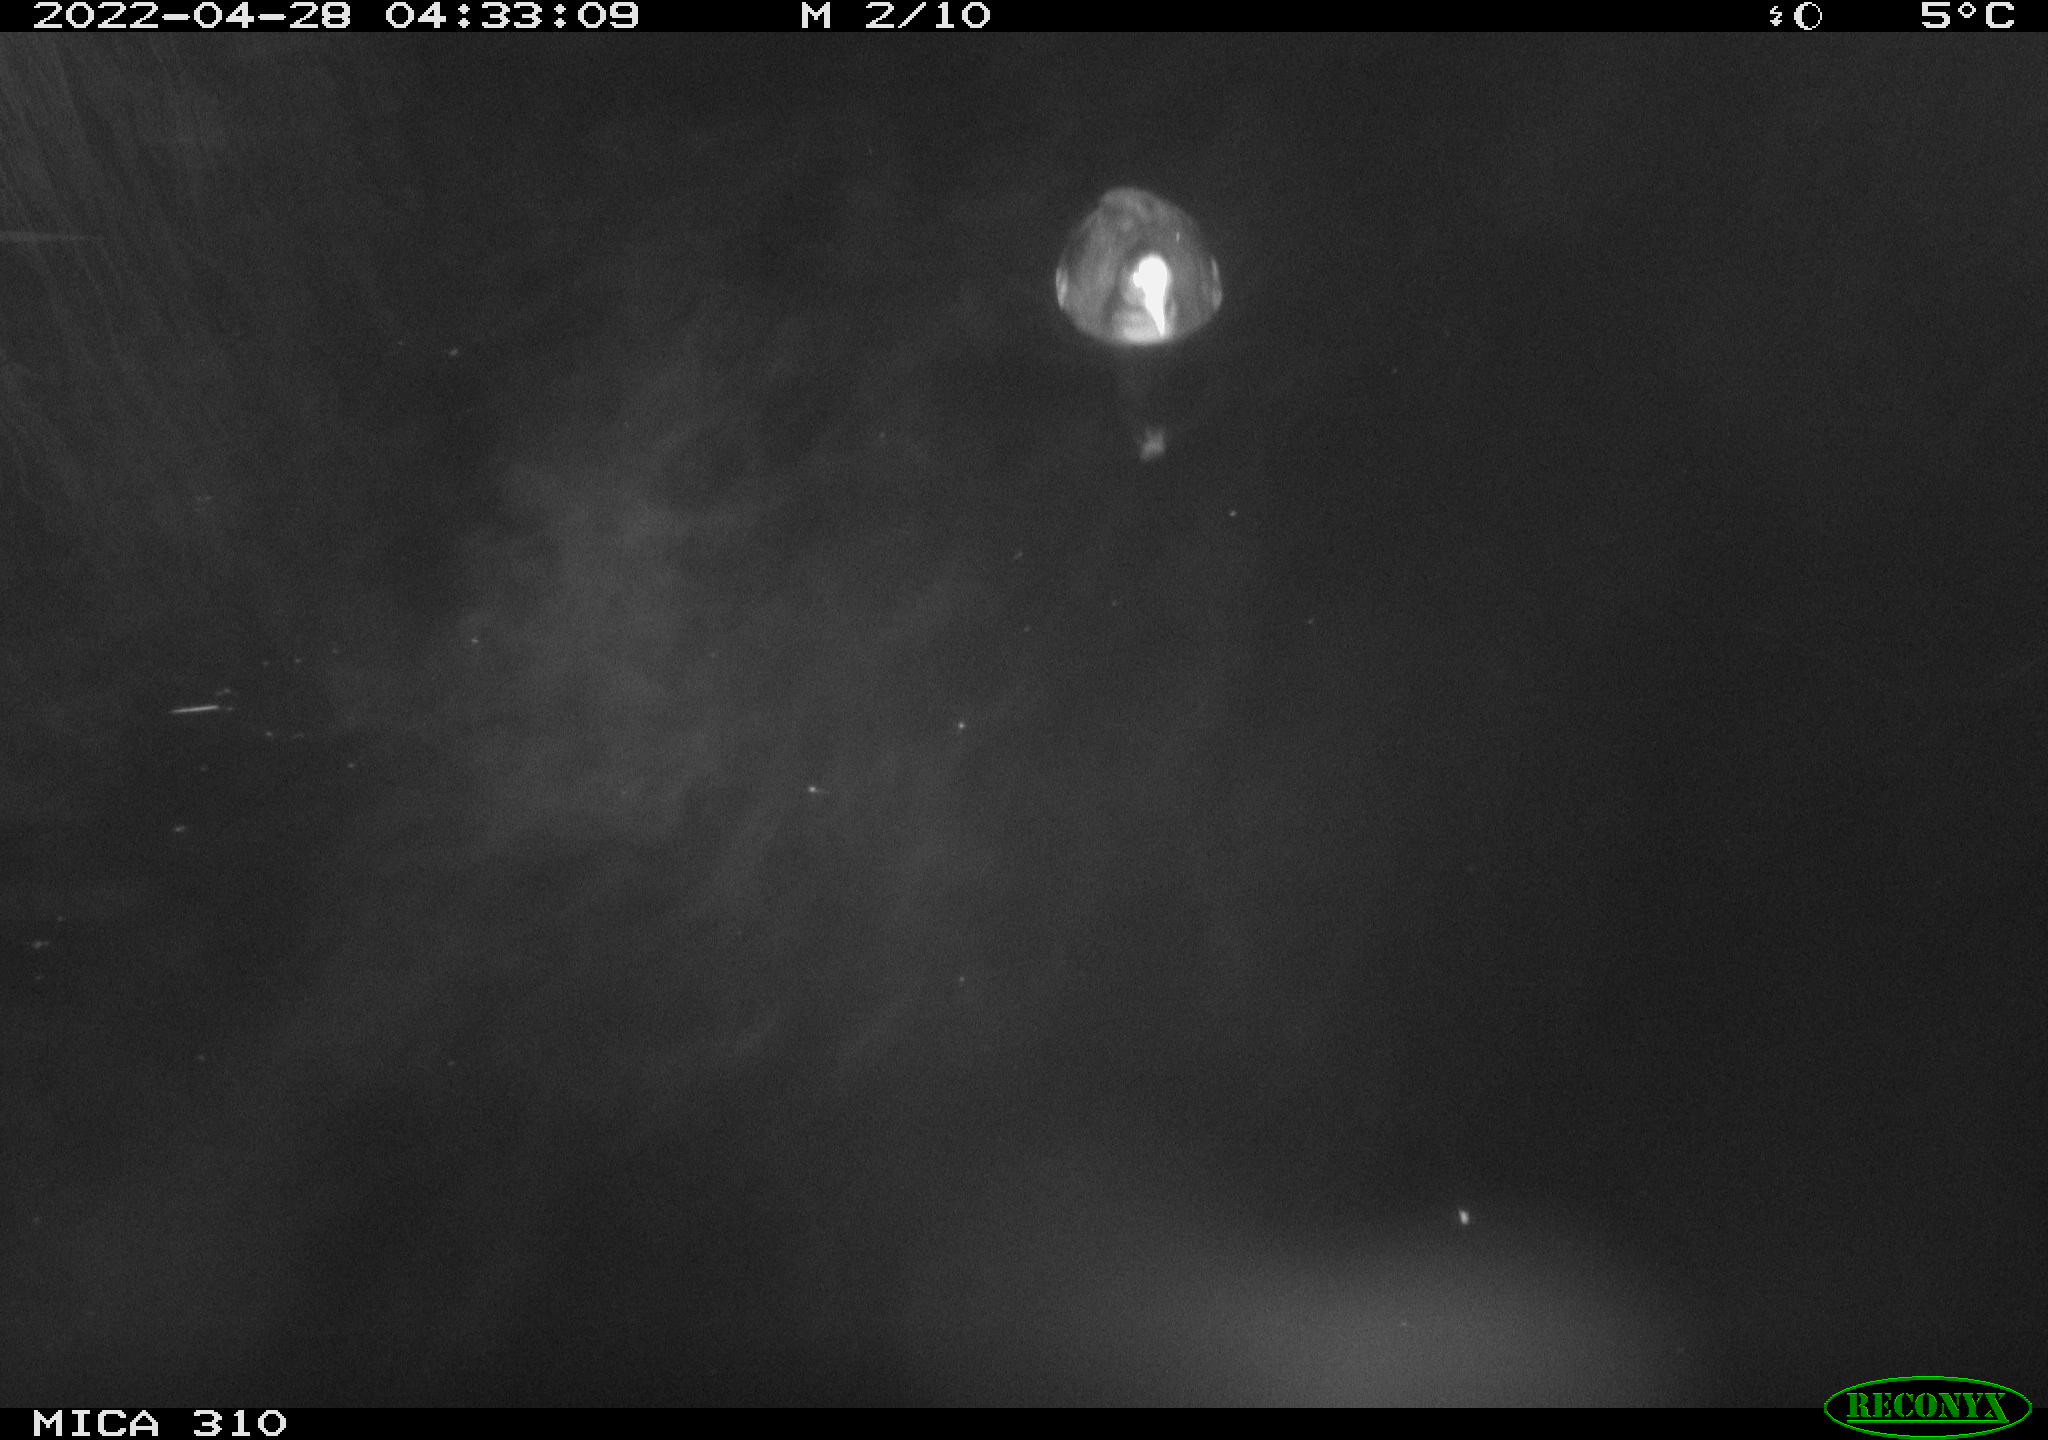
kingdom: Animalia
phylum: Chordata
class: Aves
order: Anseriformes
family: Anatidae
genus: Anas
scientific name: Anas platyrhynchos
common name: Mallard
